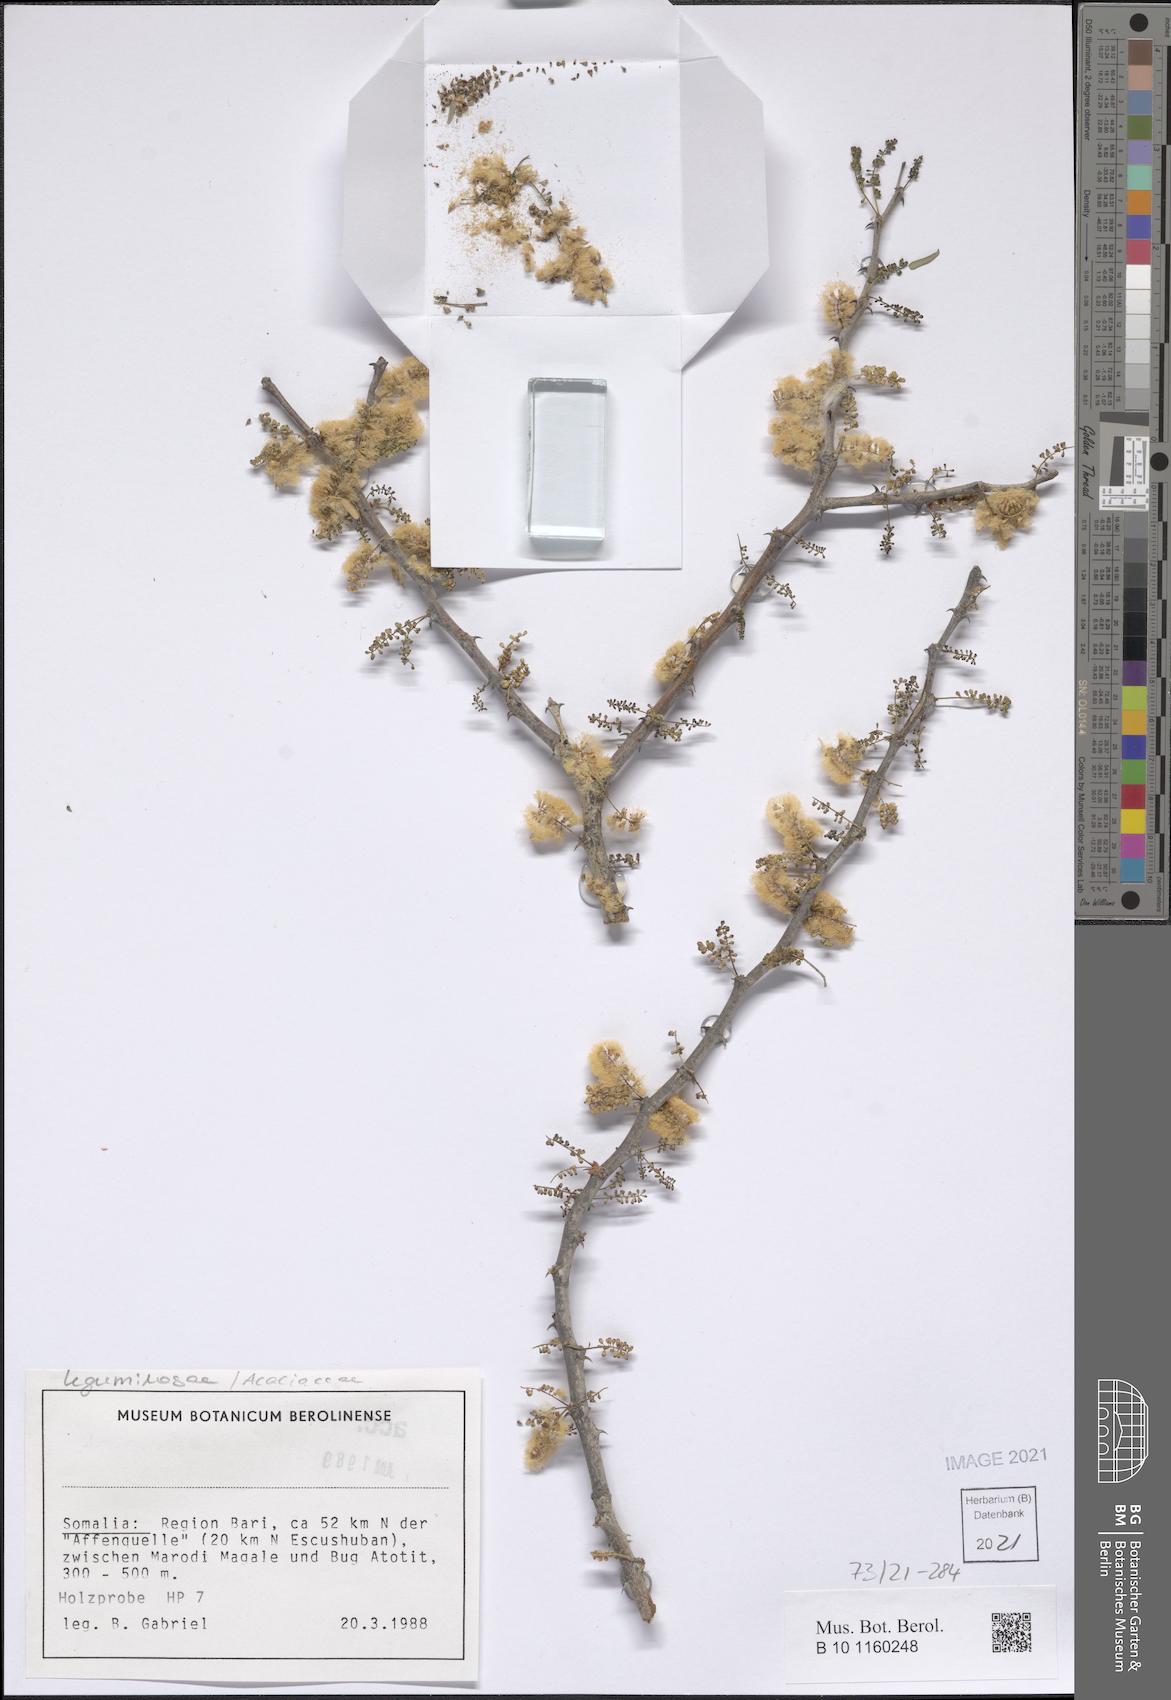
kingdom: Plantae
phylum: Tracheophyta
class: Magnoliopsida
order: Fabales
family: Fabaceae
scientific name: Fabaceae
